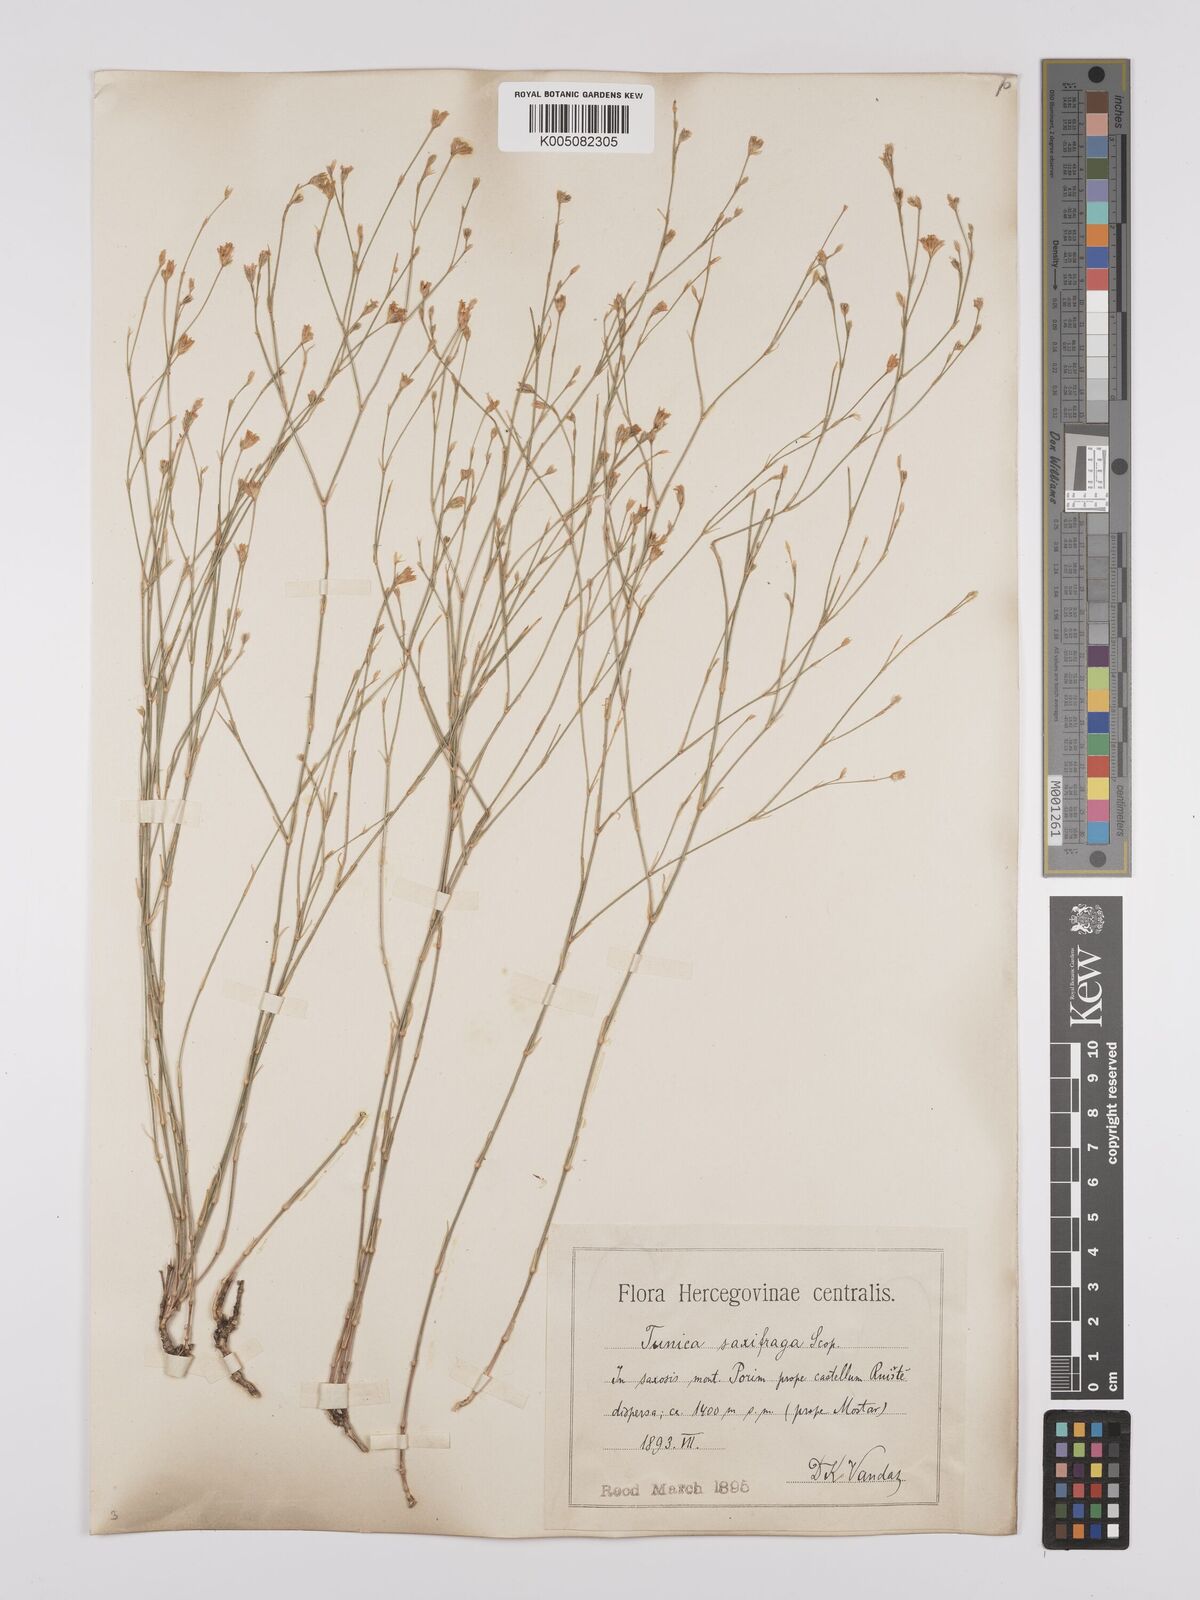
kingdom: Plantae
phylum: Tracheophyta
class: Magnoliopsida
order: Caryophyllales
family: Caryophyllaceae
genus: Petrorhagia
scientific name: Petrorhagia saxifraga
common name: Tunicflower
